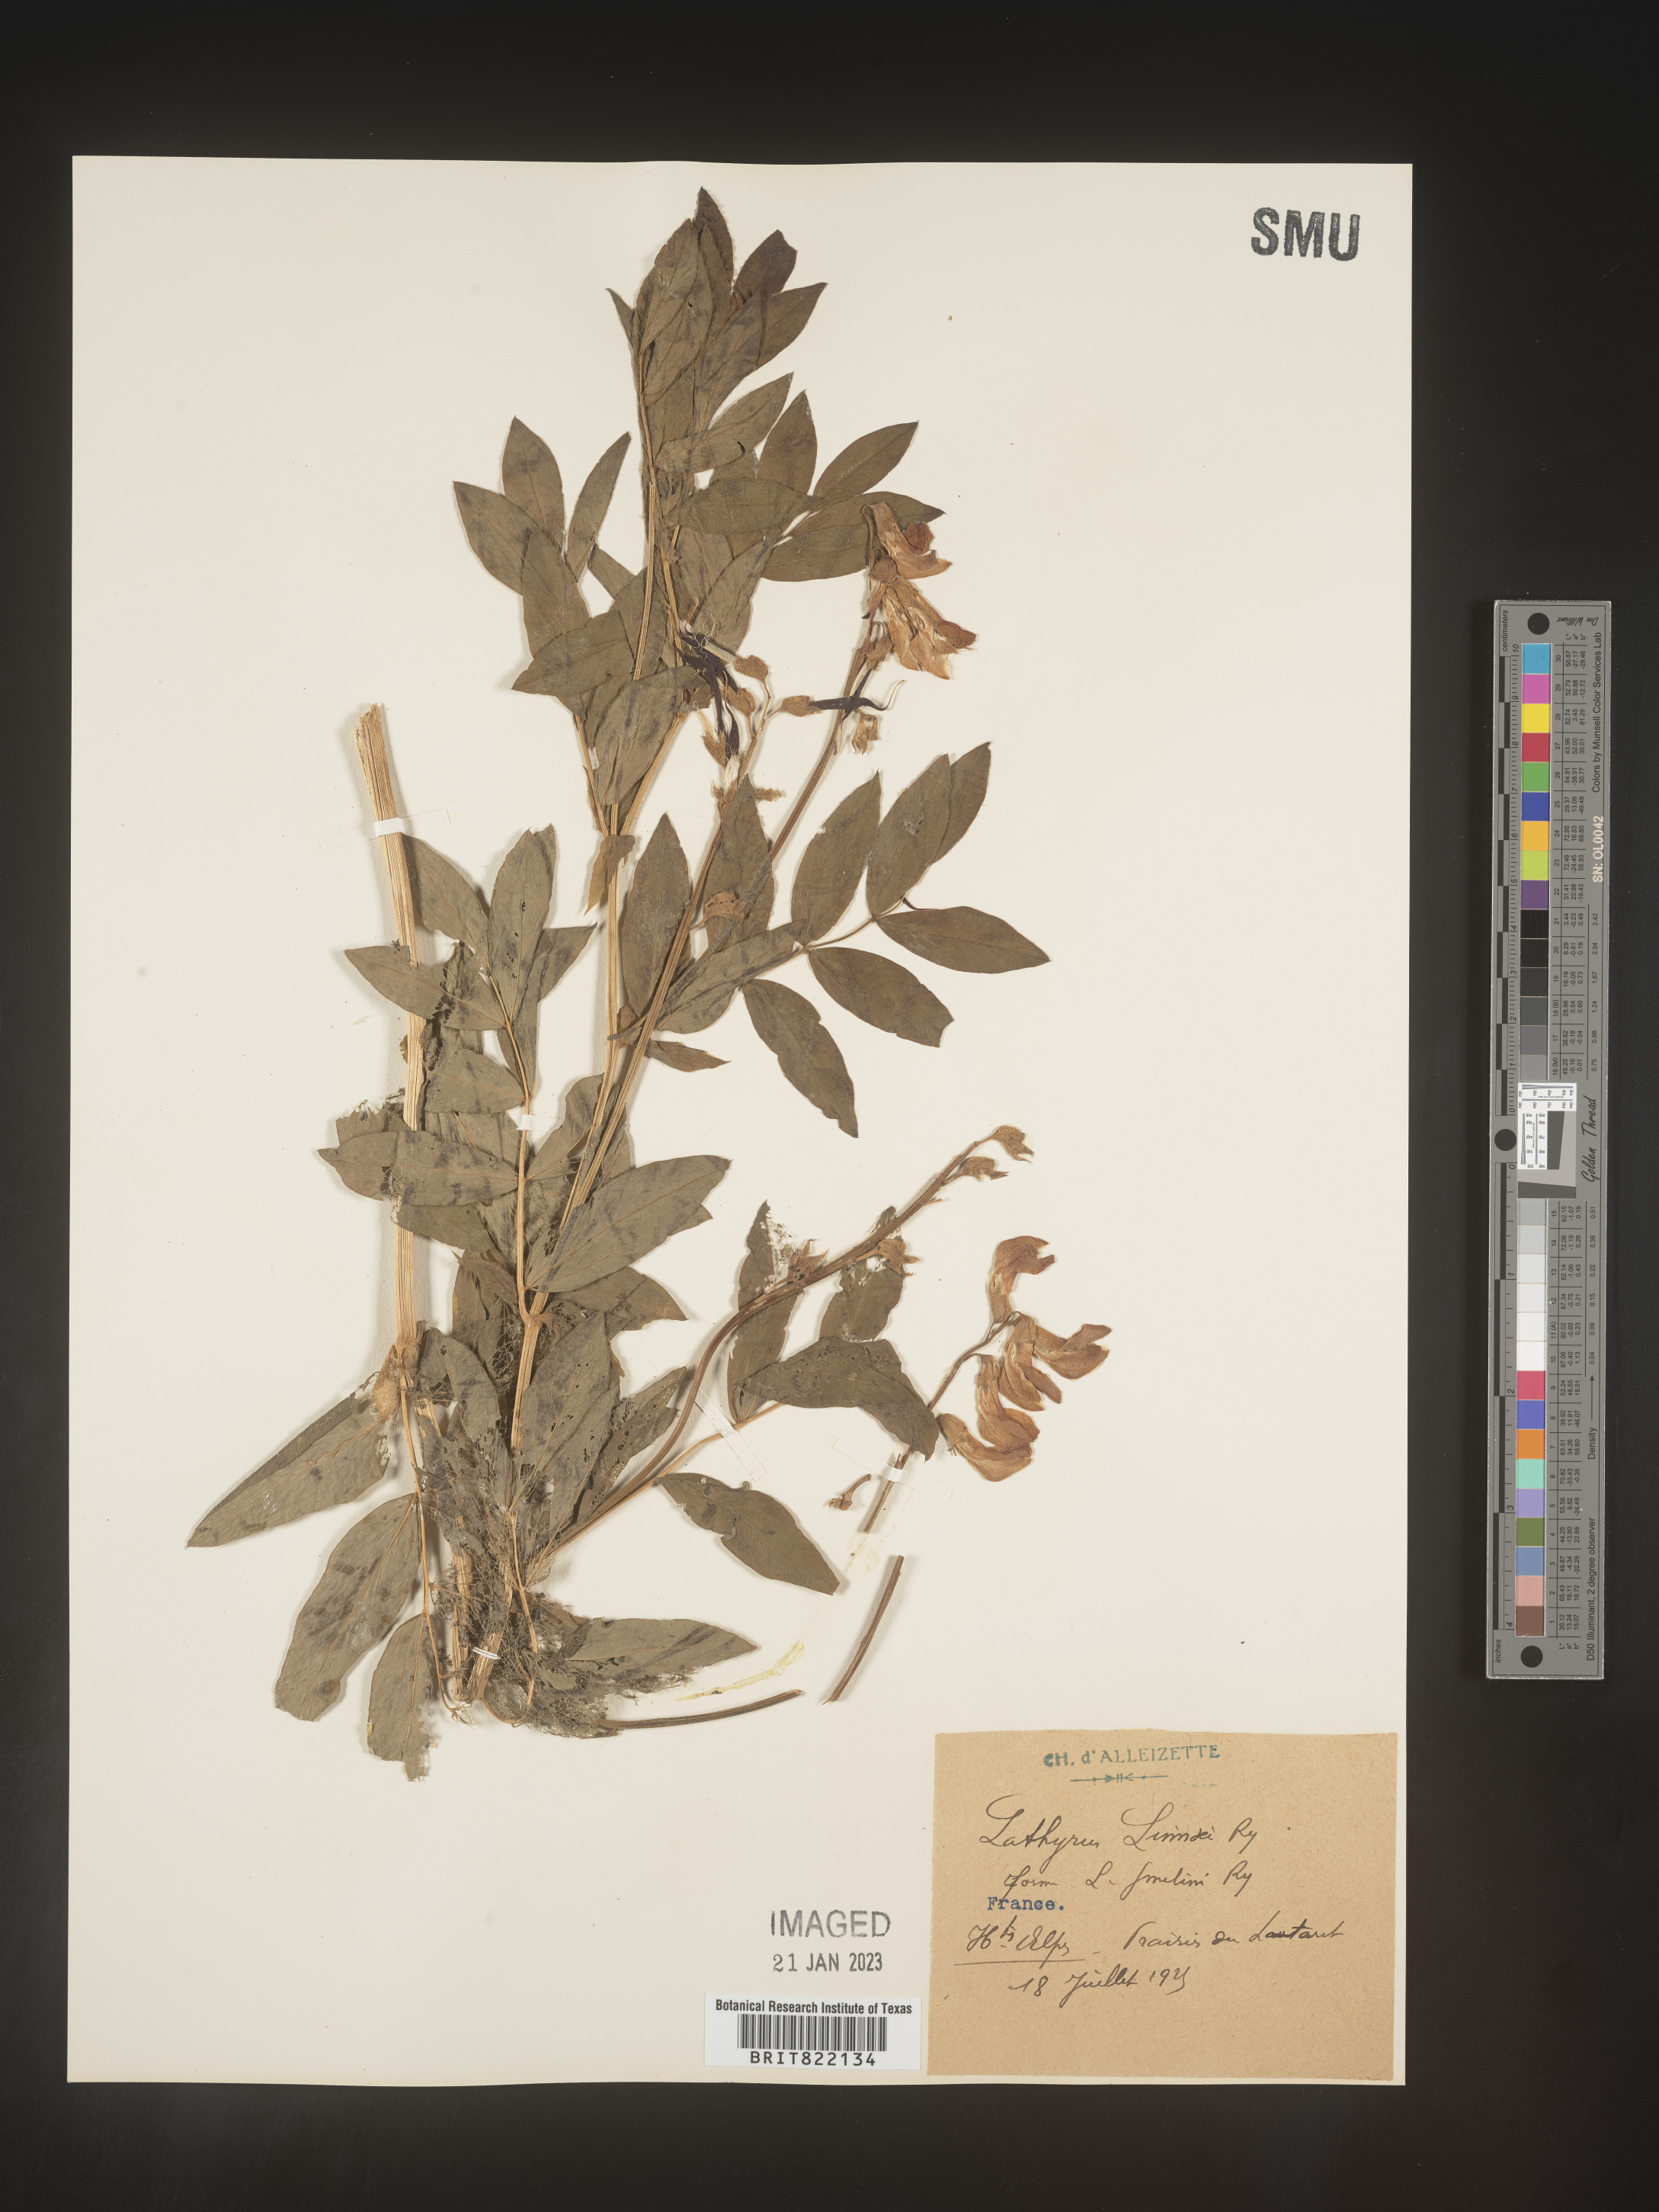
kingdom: Plantae
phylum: Tracheophyta
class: Magnoliopsida
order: Fabales
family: Fabaceae
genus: Lathyrus
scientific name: Lathyrus
